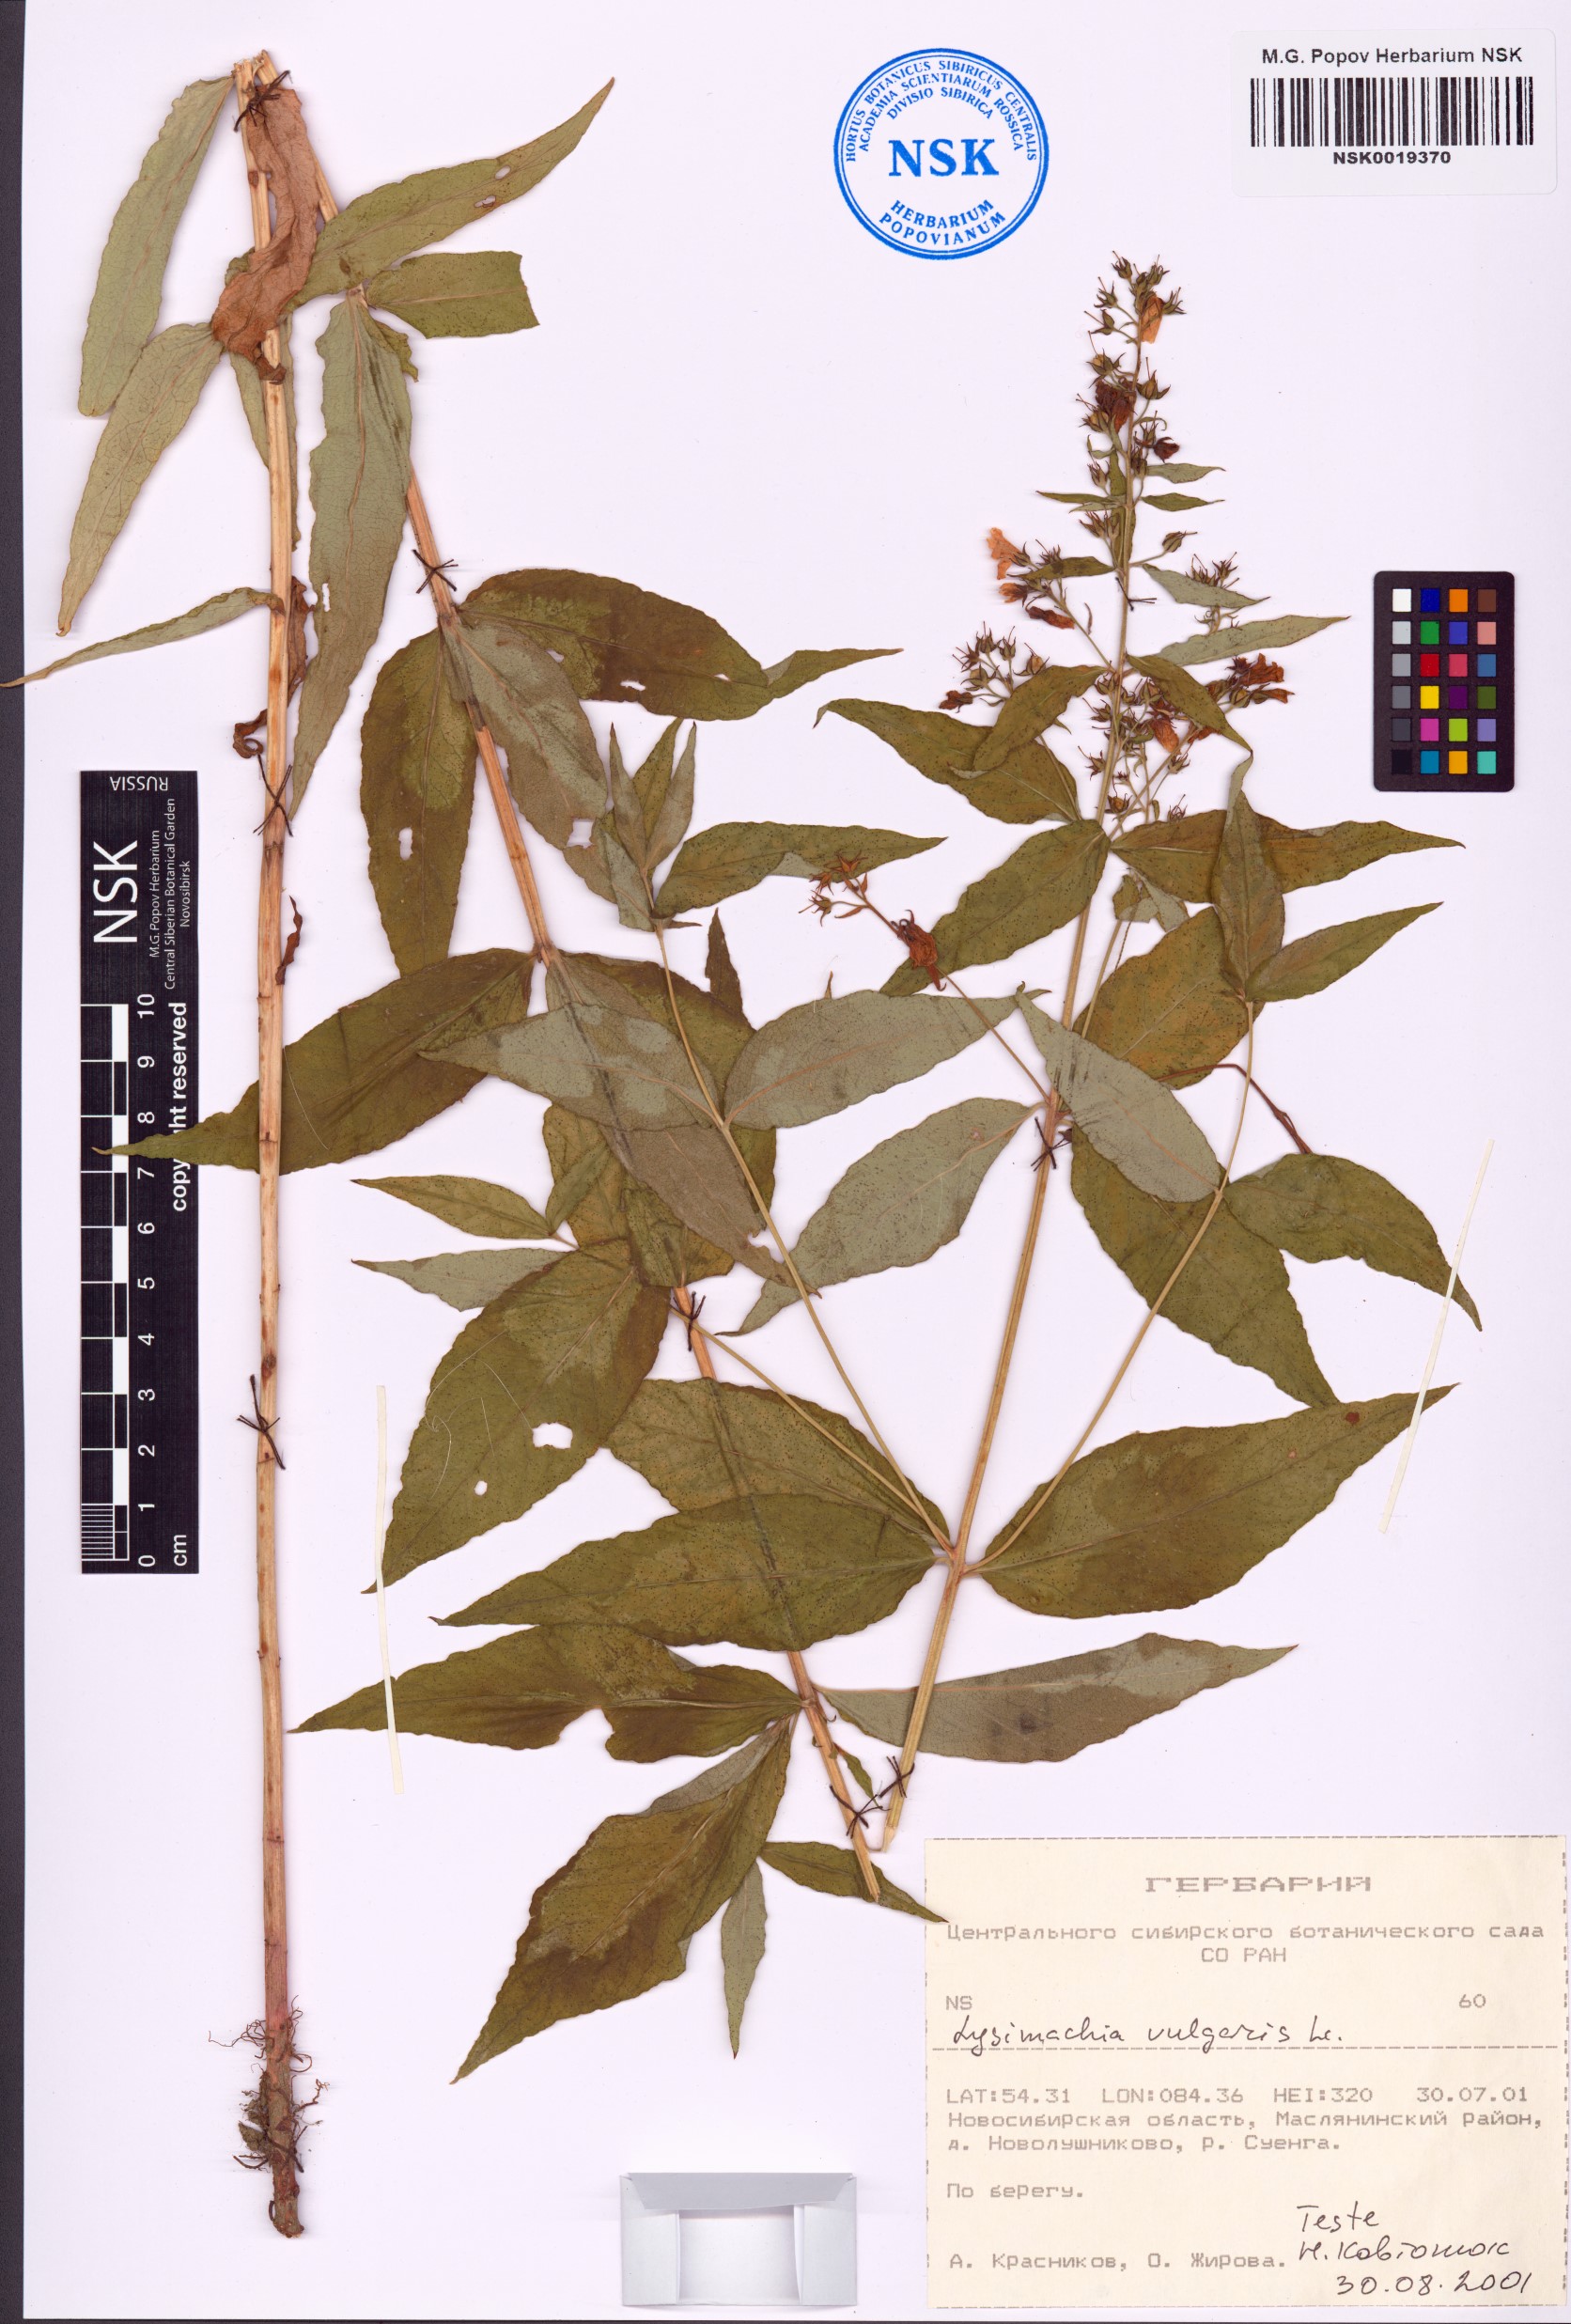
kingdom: Plantae
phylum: Tracheophyta
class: Magnoliopsida
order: Ericales
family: Primulaceae
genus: Lysimachia
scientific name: Lysimachia vulgaris
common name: Yellow loosestrife
